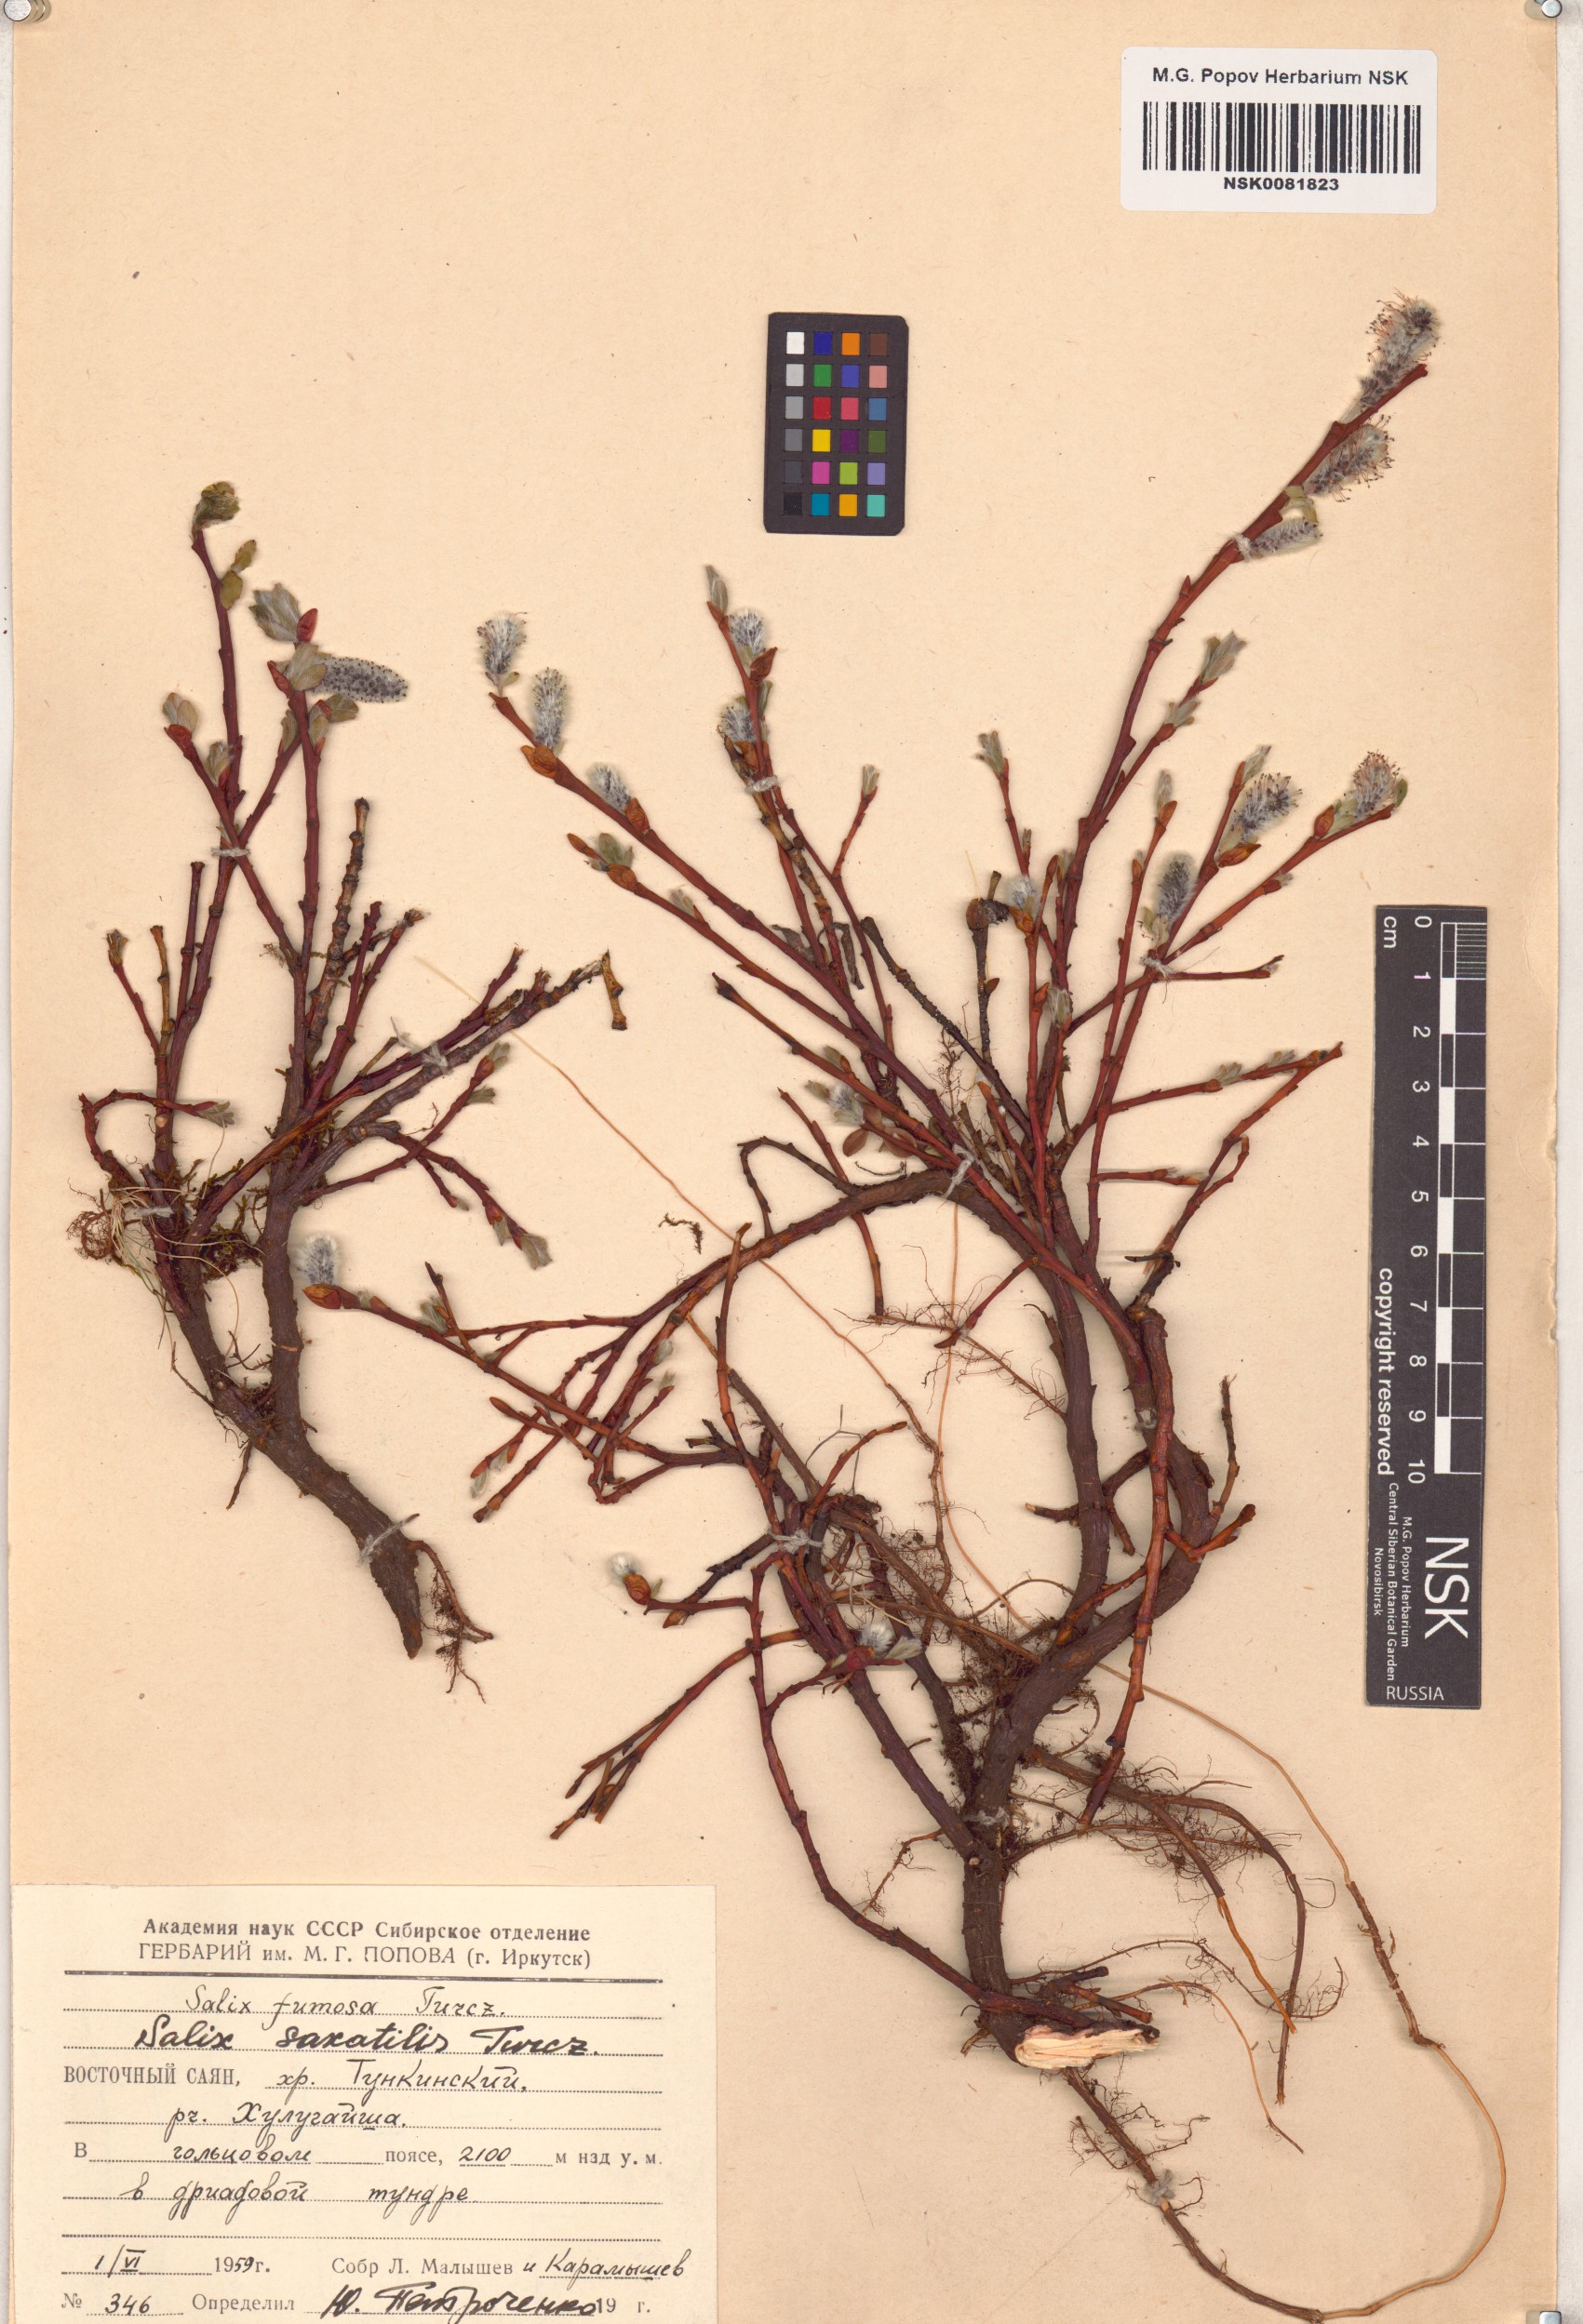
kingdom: Plantae
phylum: Tracheophyta
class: Magnoliopsida
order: Malpighiales
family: Salicaceae
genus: Salix
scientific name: Salix saxatilis
